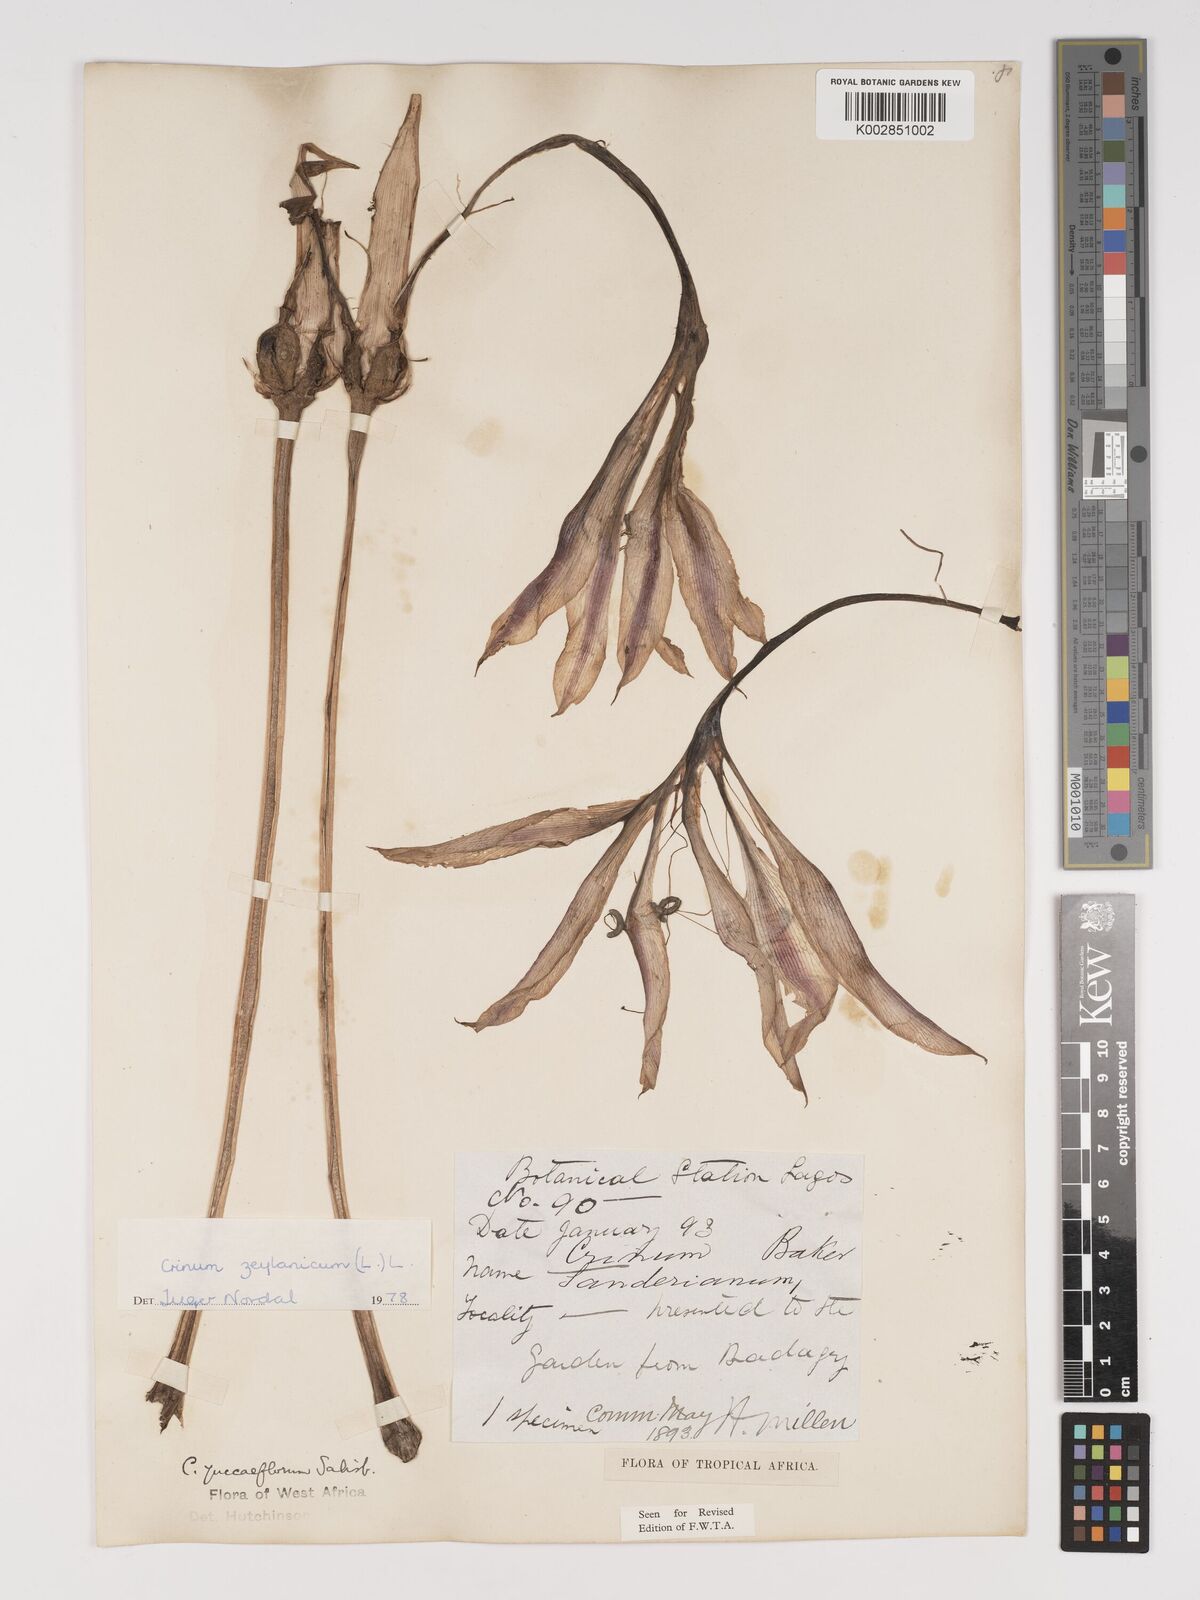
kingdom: Plantae
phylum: Tracheophyta
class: Liliopsida
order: Asparagales
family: Amaryllidaceae
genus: Crinum
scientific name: Crinum ornatum
